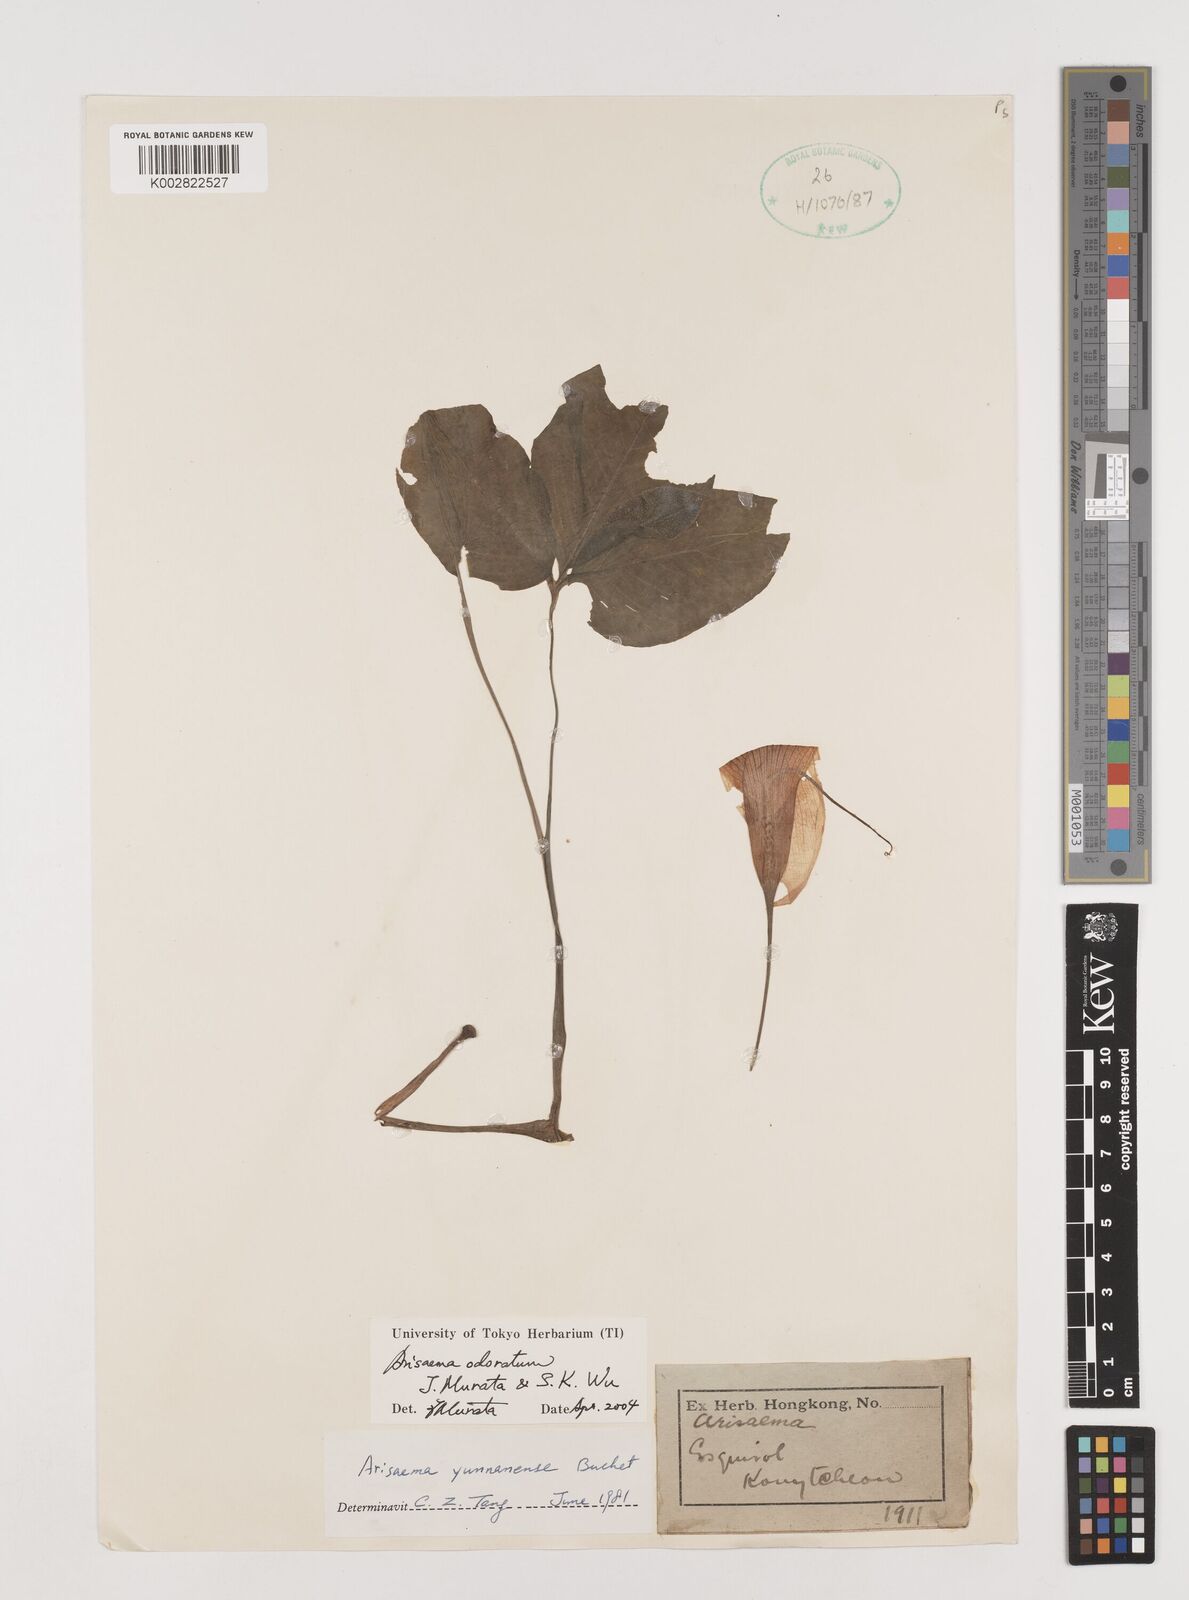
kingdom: Plantae
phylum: Tracheophyta
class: Liliopsida
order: Alismatales
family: Araceae
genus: Arisaema
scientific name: Arisaema odoratum
